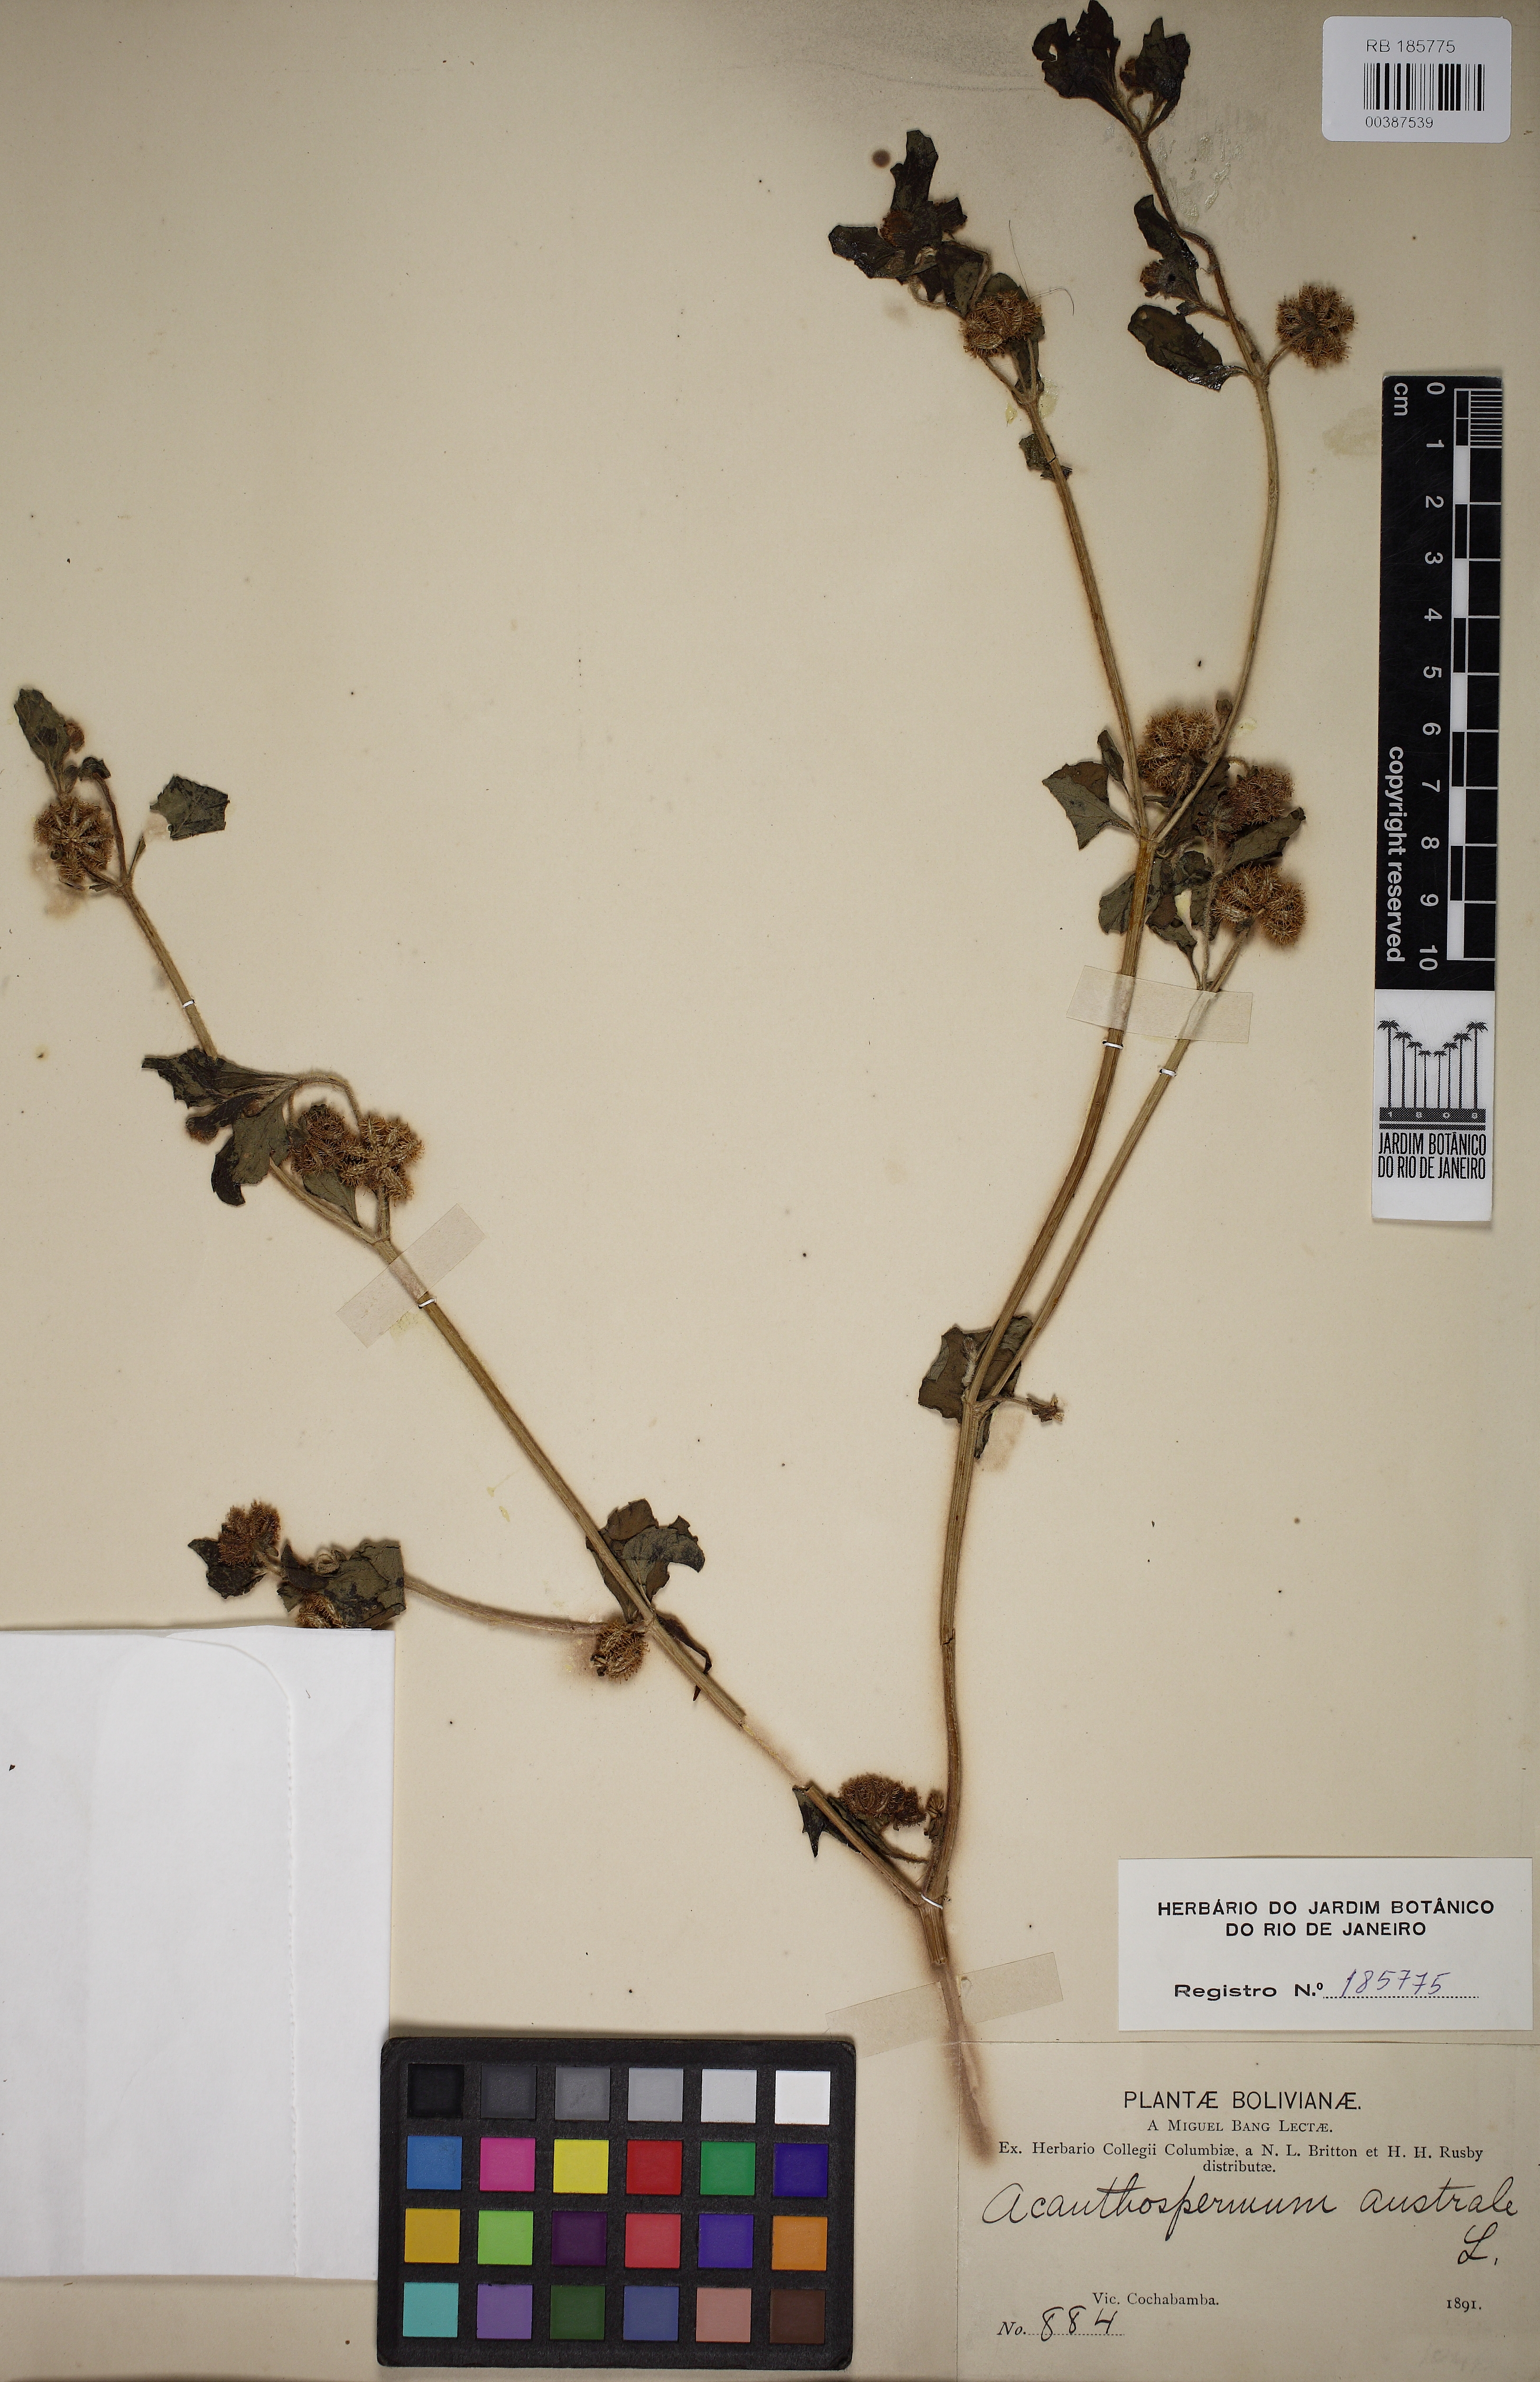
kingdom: Plantae
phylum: Tracheophyta
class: Magnoliopsida
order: Asterales
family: Asteraceae
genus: Acanthospermum
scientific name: Acanthospermum australe
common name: Paraguayan starbur
